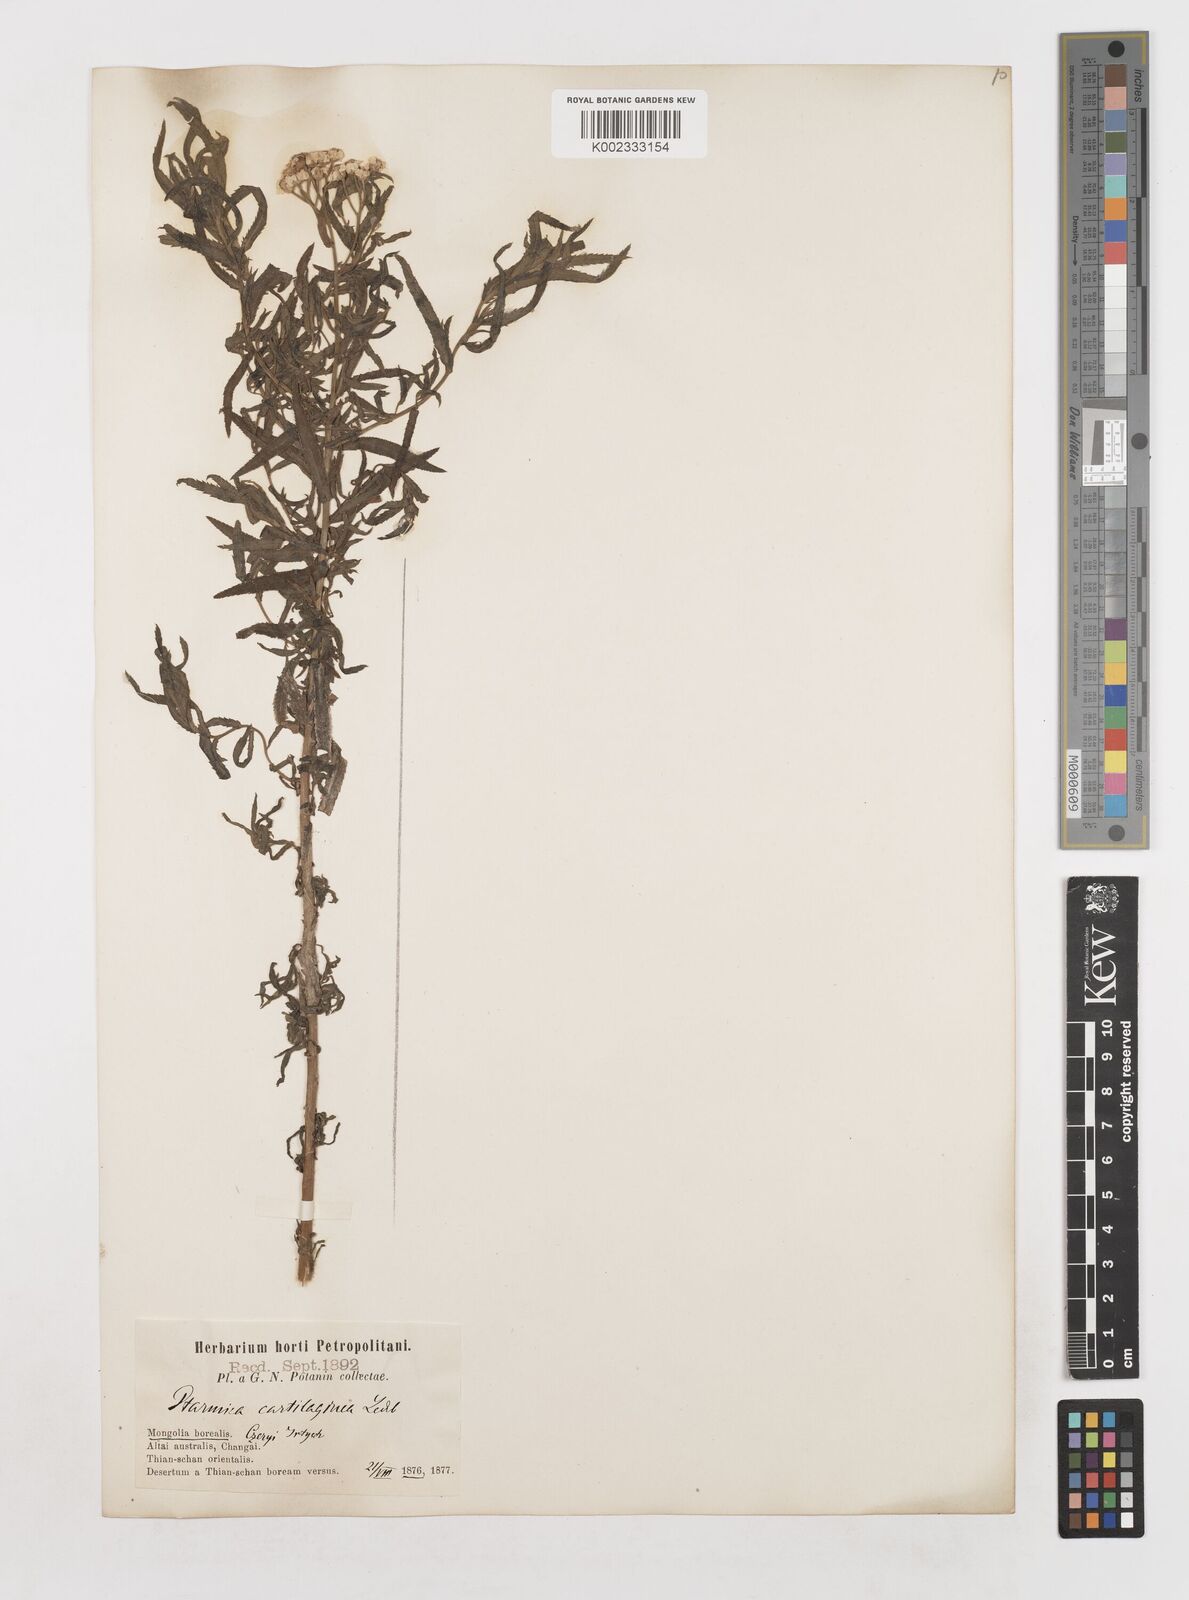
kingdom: Plantae
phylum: Tracheophyta
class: Magnoliopsida
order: Asterales
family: Asteraceae
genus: Achillea
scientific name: Achillea salicifolia
